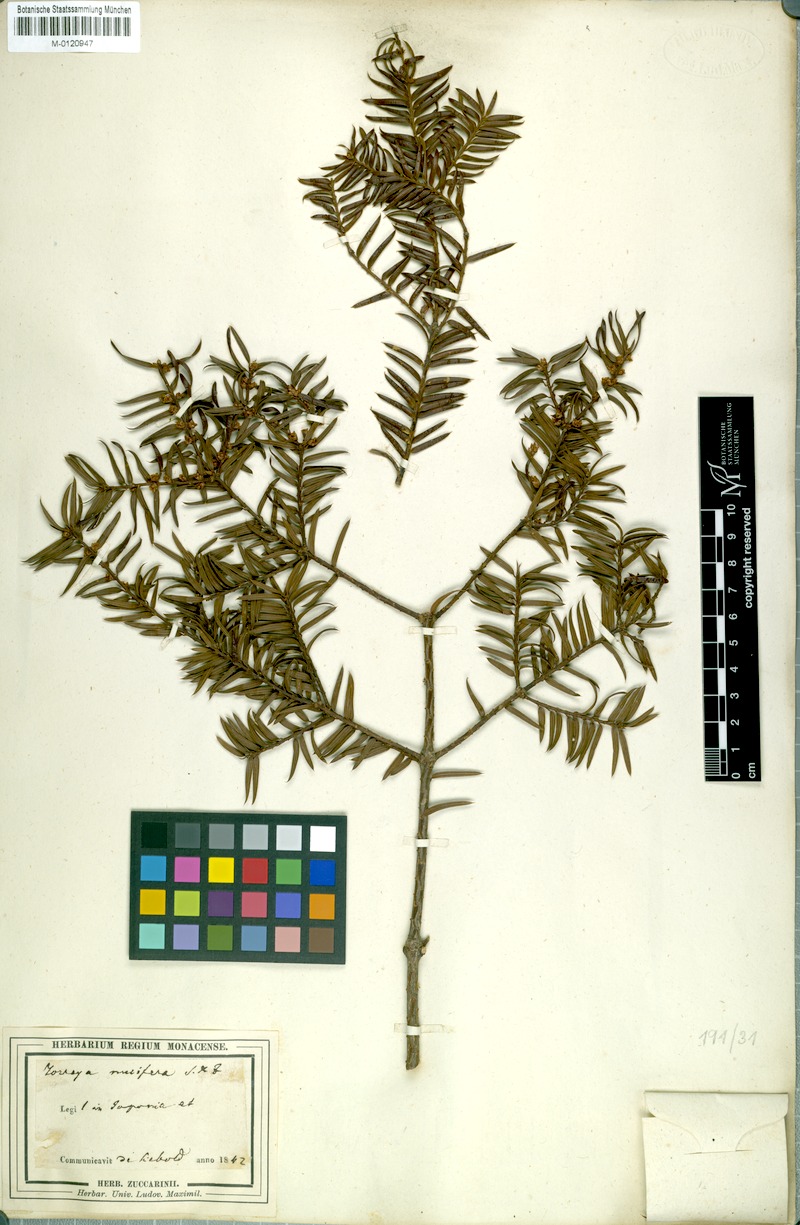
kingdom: Plantae
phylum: Tracheophyta
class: Pinopsida
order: Pinales
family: Taxaceae
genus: Torreya
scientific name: Torreya nucifera
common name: Japanese nutmeg tree
